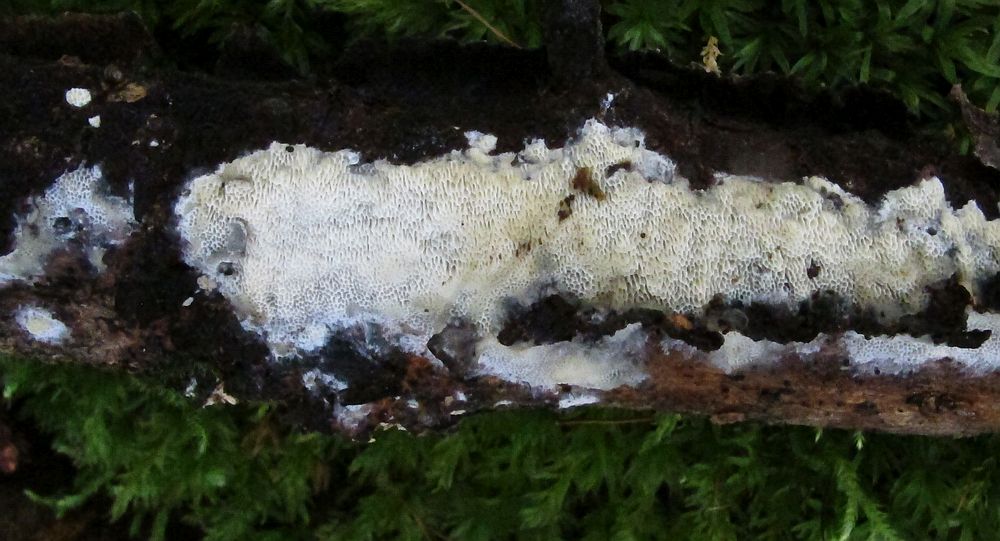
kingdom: Fungi
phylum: Basidiomycota
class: Agaricomycetes
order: Polyporales
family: Steccherinaceae
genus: Antella
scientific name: Antella niemelaei
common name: grovporet elastikporesvamp
